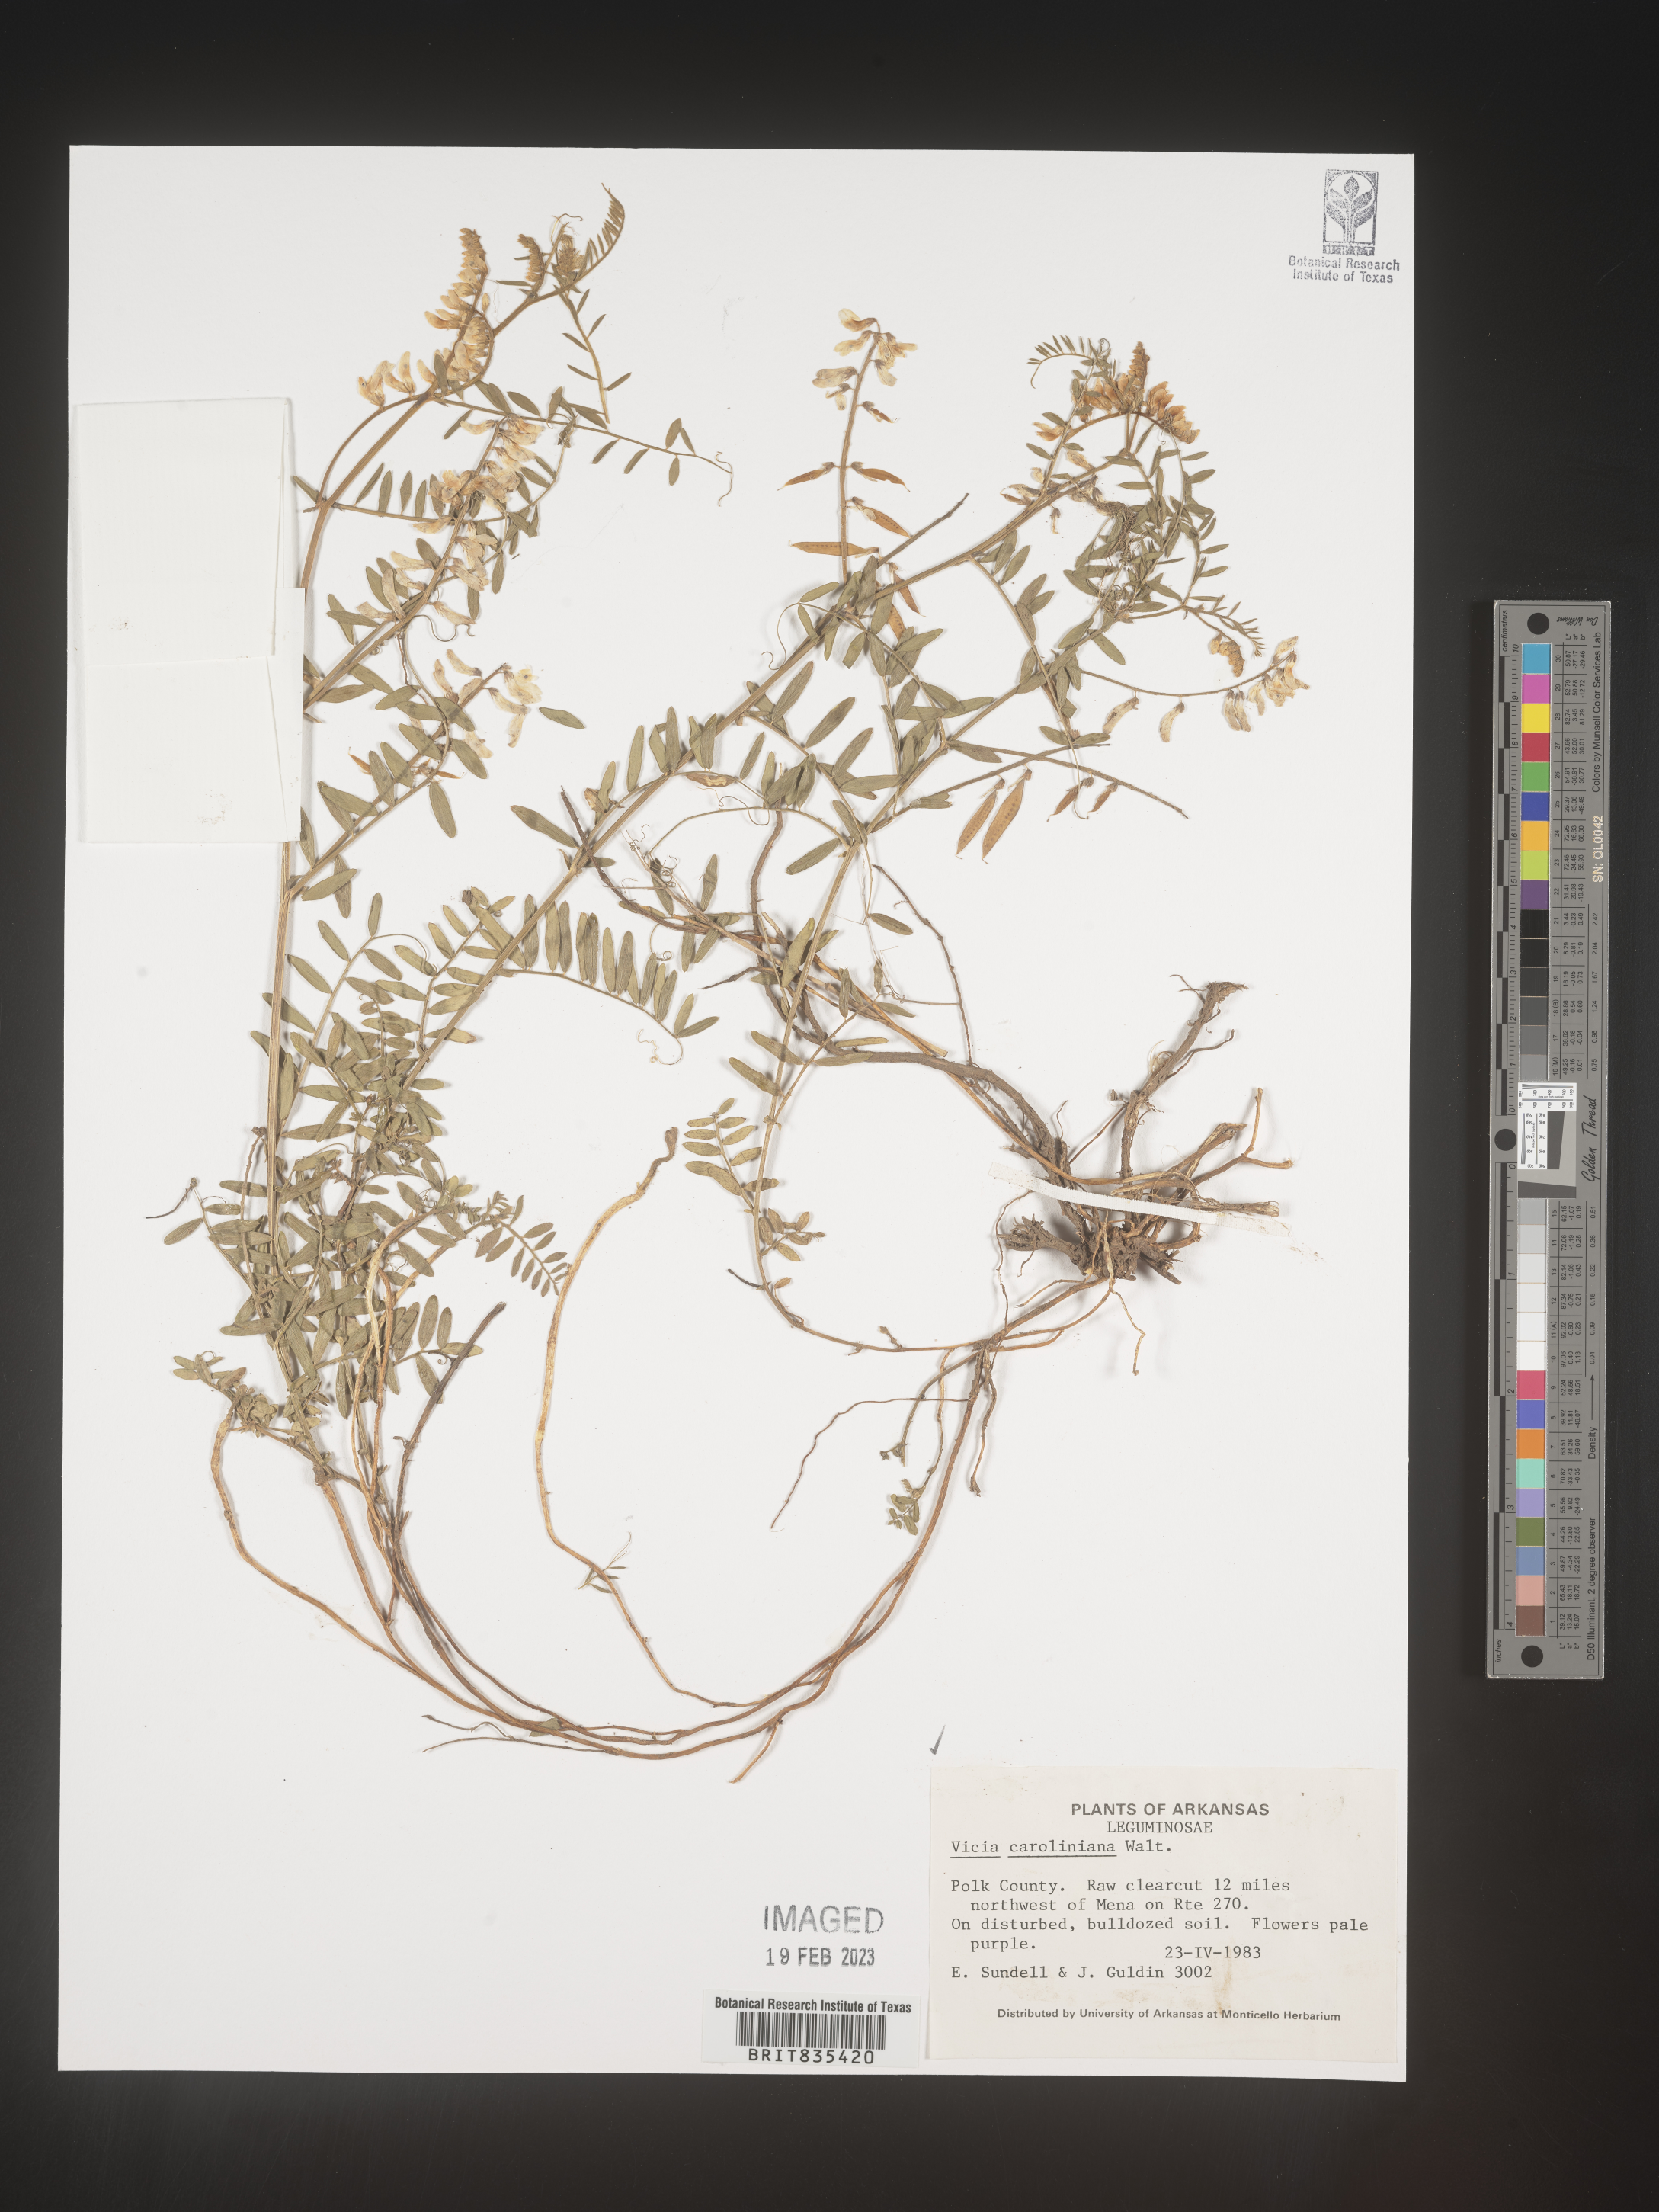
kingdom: Plantae
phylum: Tracheophyta
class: Magnoliopsida
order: Fabales
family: Fabaceae
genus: Vicia
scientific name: Vicia caroliniana
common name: Carolina vetch
